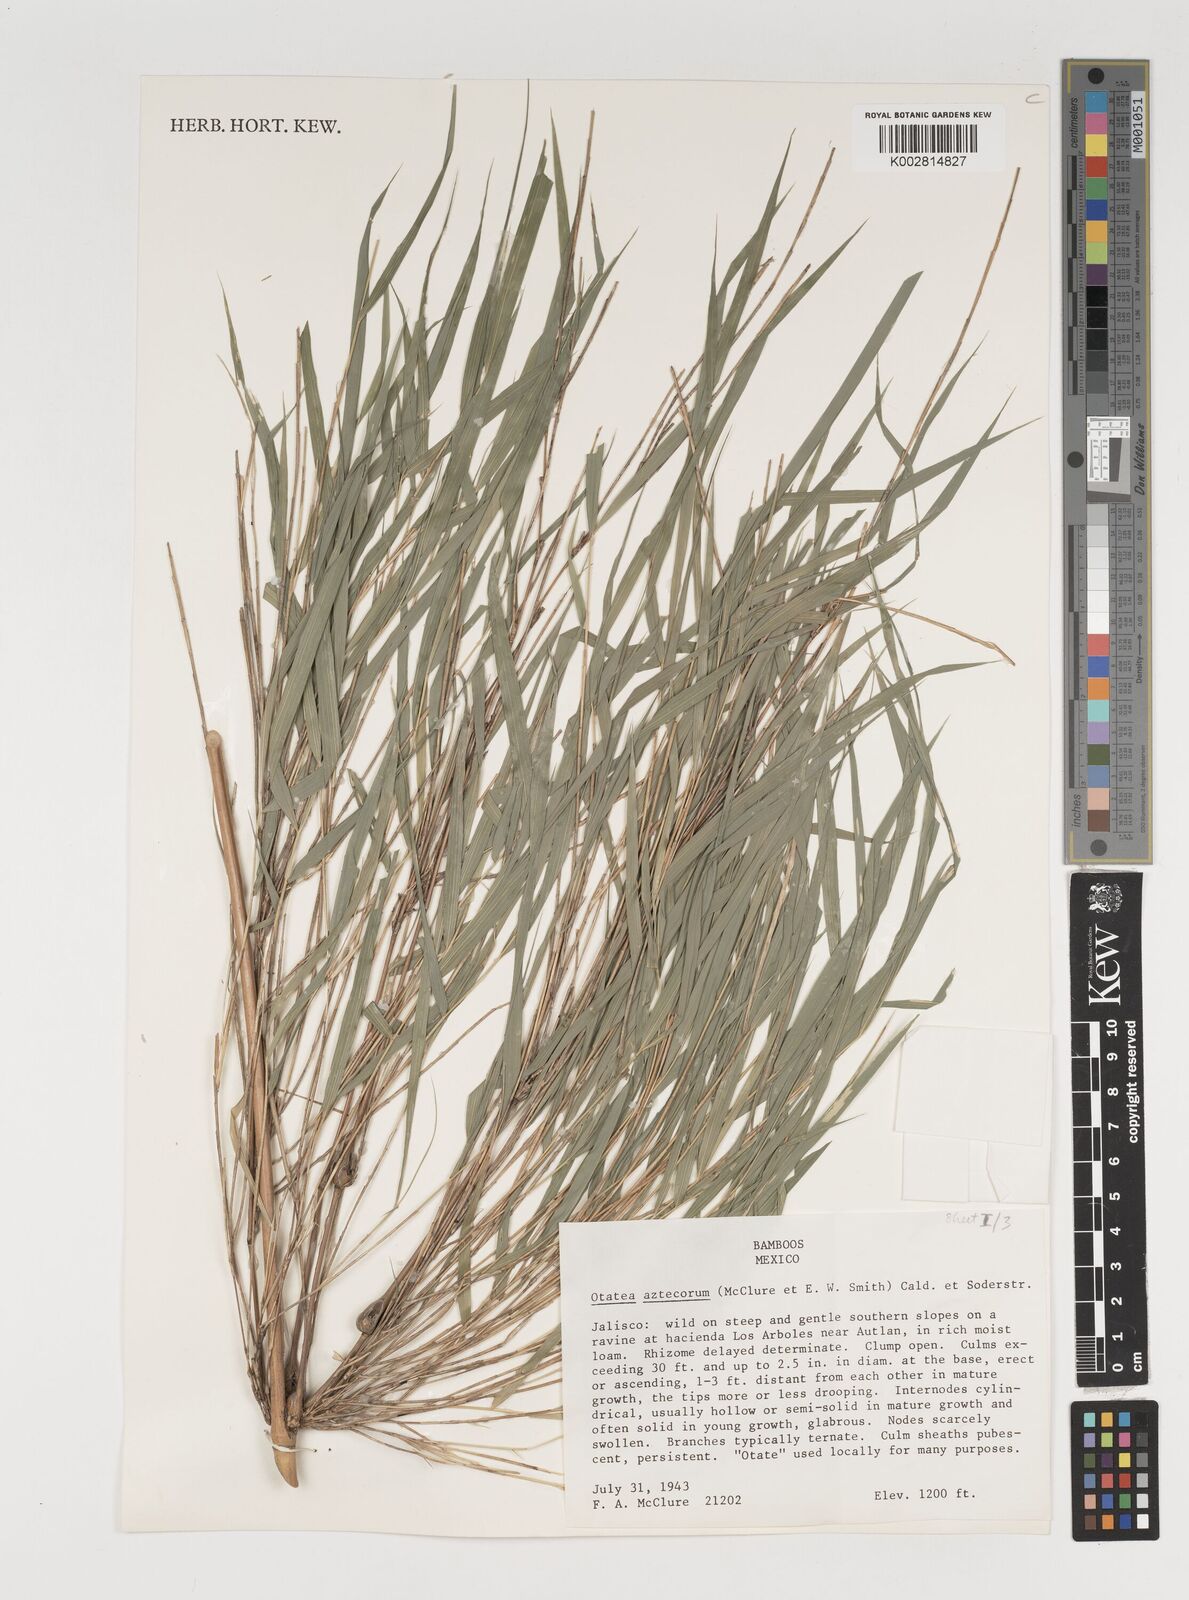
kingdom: Plantae
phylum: Tracheophyta
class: Liliopsida
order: Poales
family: Poaceae
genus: Olmeca
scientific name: Olmeca
